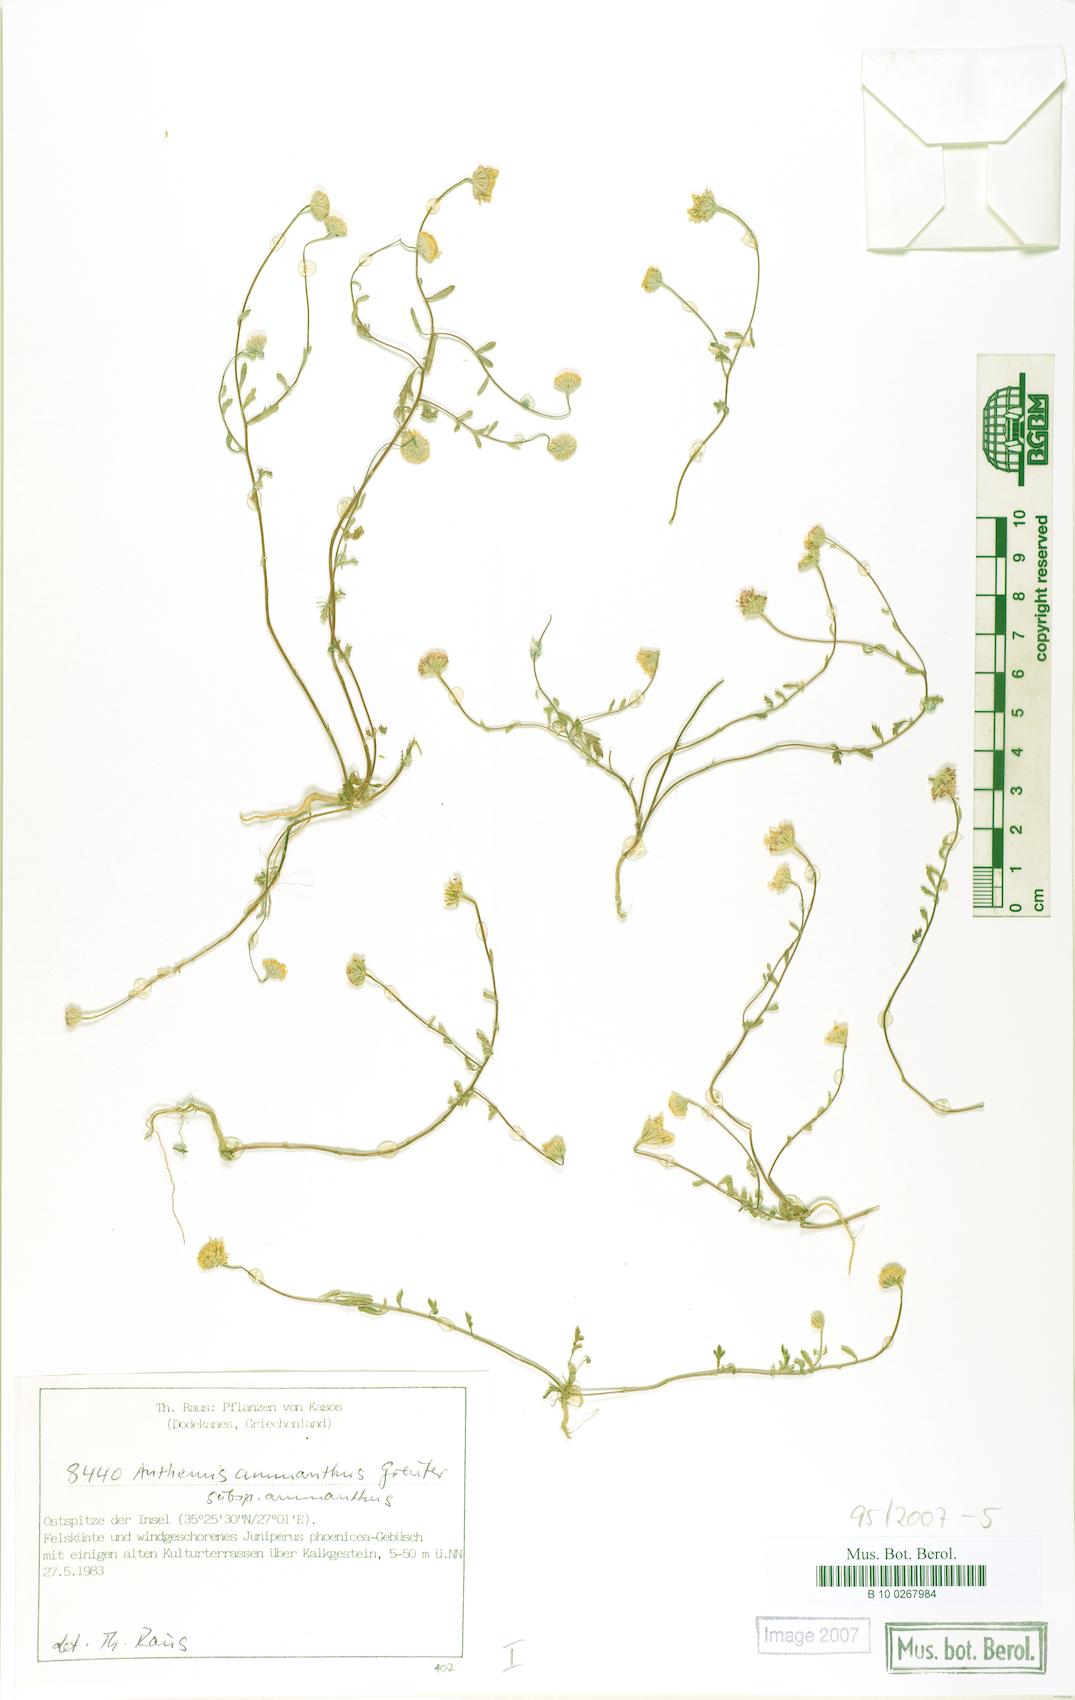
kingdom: Plantae
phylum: Tracheophyta
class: Magnoliopsida
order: Asterales
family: Asteraceae
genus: Anthemis
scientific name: Anthemis ammanthus
